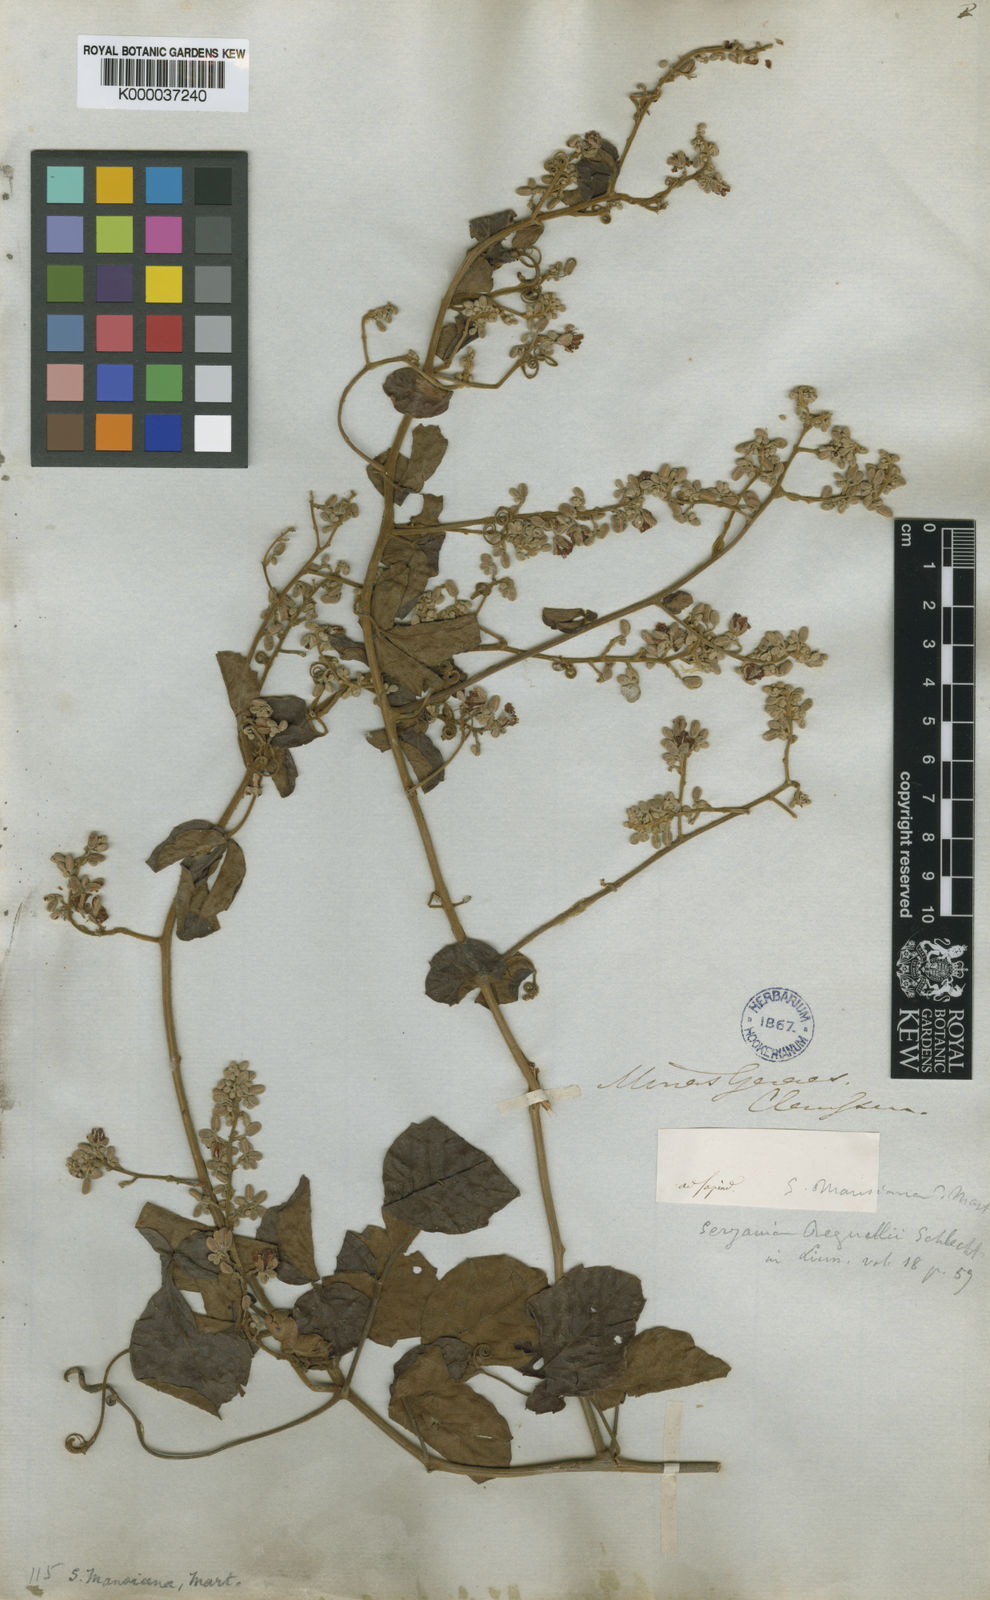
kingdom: Plantae
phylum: Tracheophyta
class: Magnoliopsida
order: Sapindales
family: Sapindaceae
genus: Serjania
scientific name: Serjania mansiana
